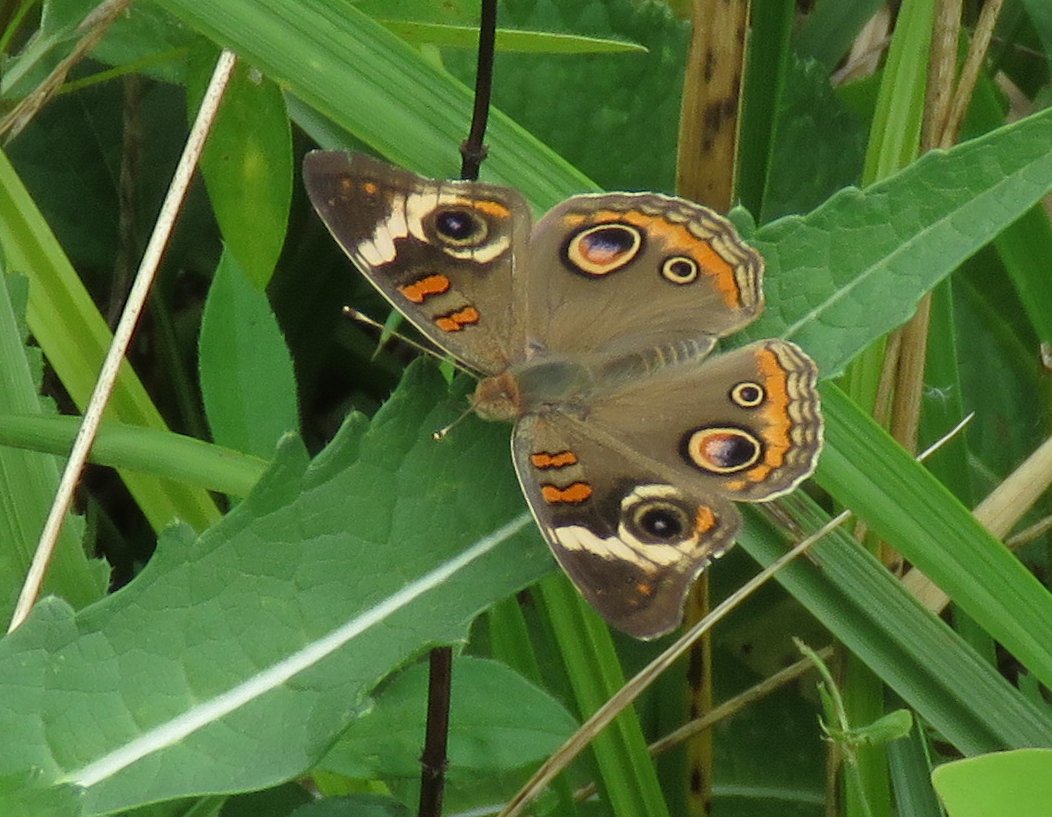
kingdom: Animalia
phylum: Arthropoda
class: Insecta
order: Lepidoptera
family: Nymphalidae
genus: Junonia
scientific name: Junonia coenia
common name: Common Buckeye
